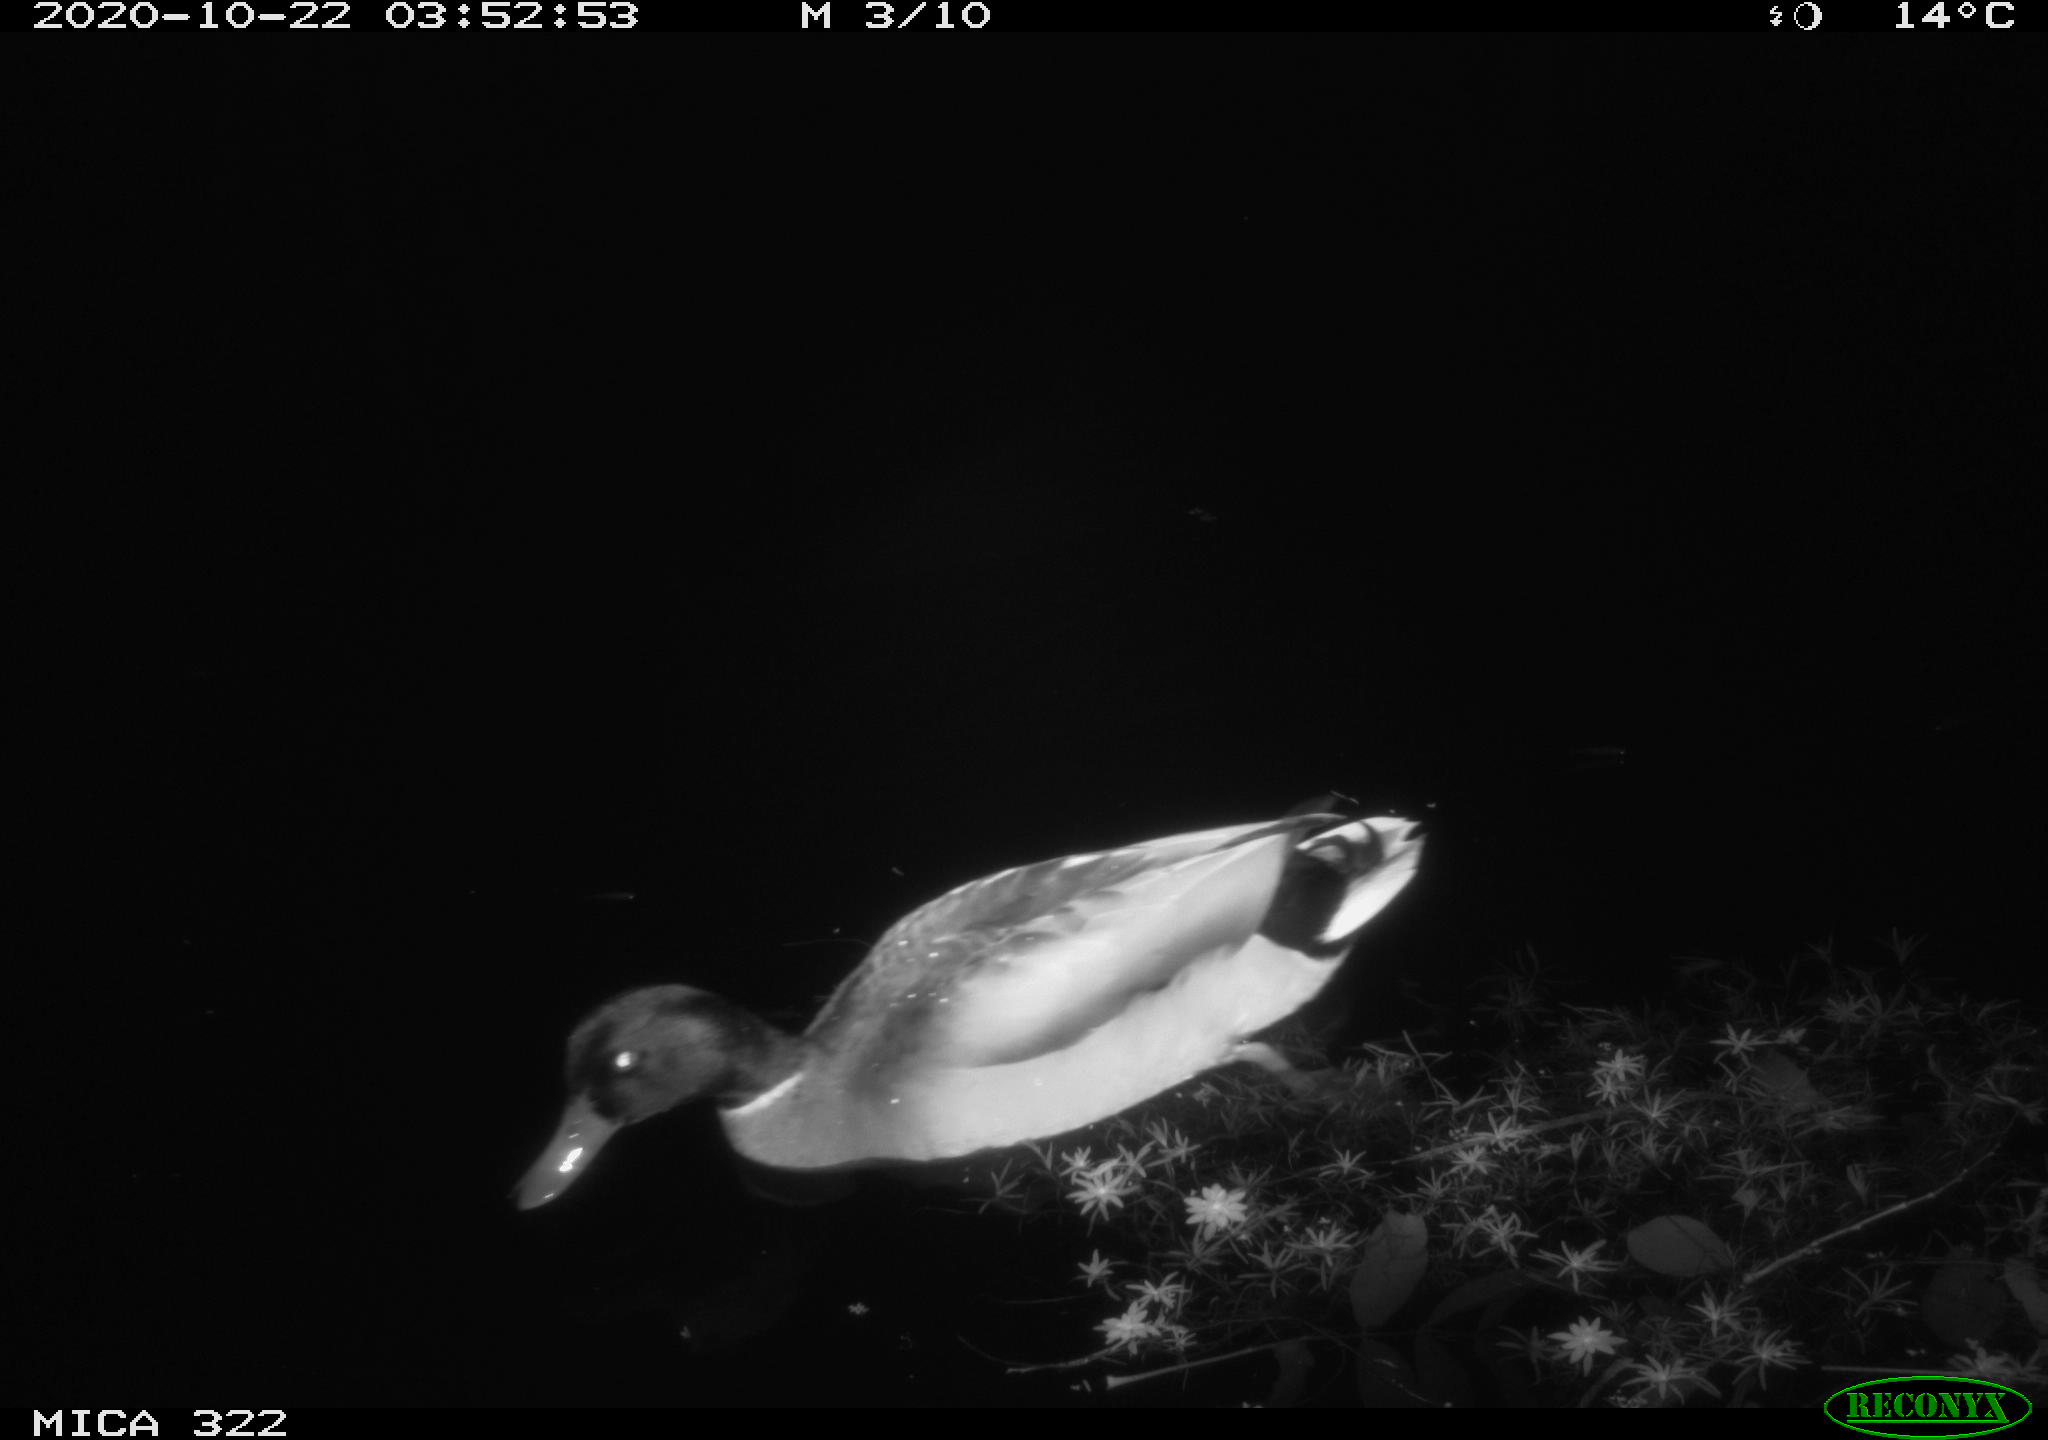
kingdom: Animalia
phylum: Chordata
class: Aves
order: Anseriformes
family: Anatidae
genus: Anas
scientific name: Anas platyrhynchos
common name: Mallard
